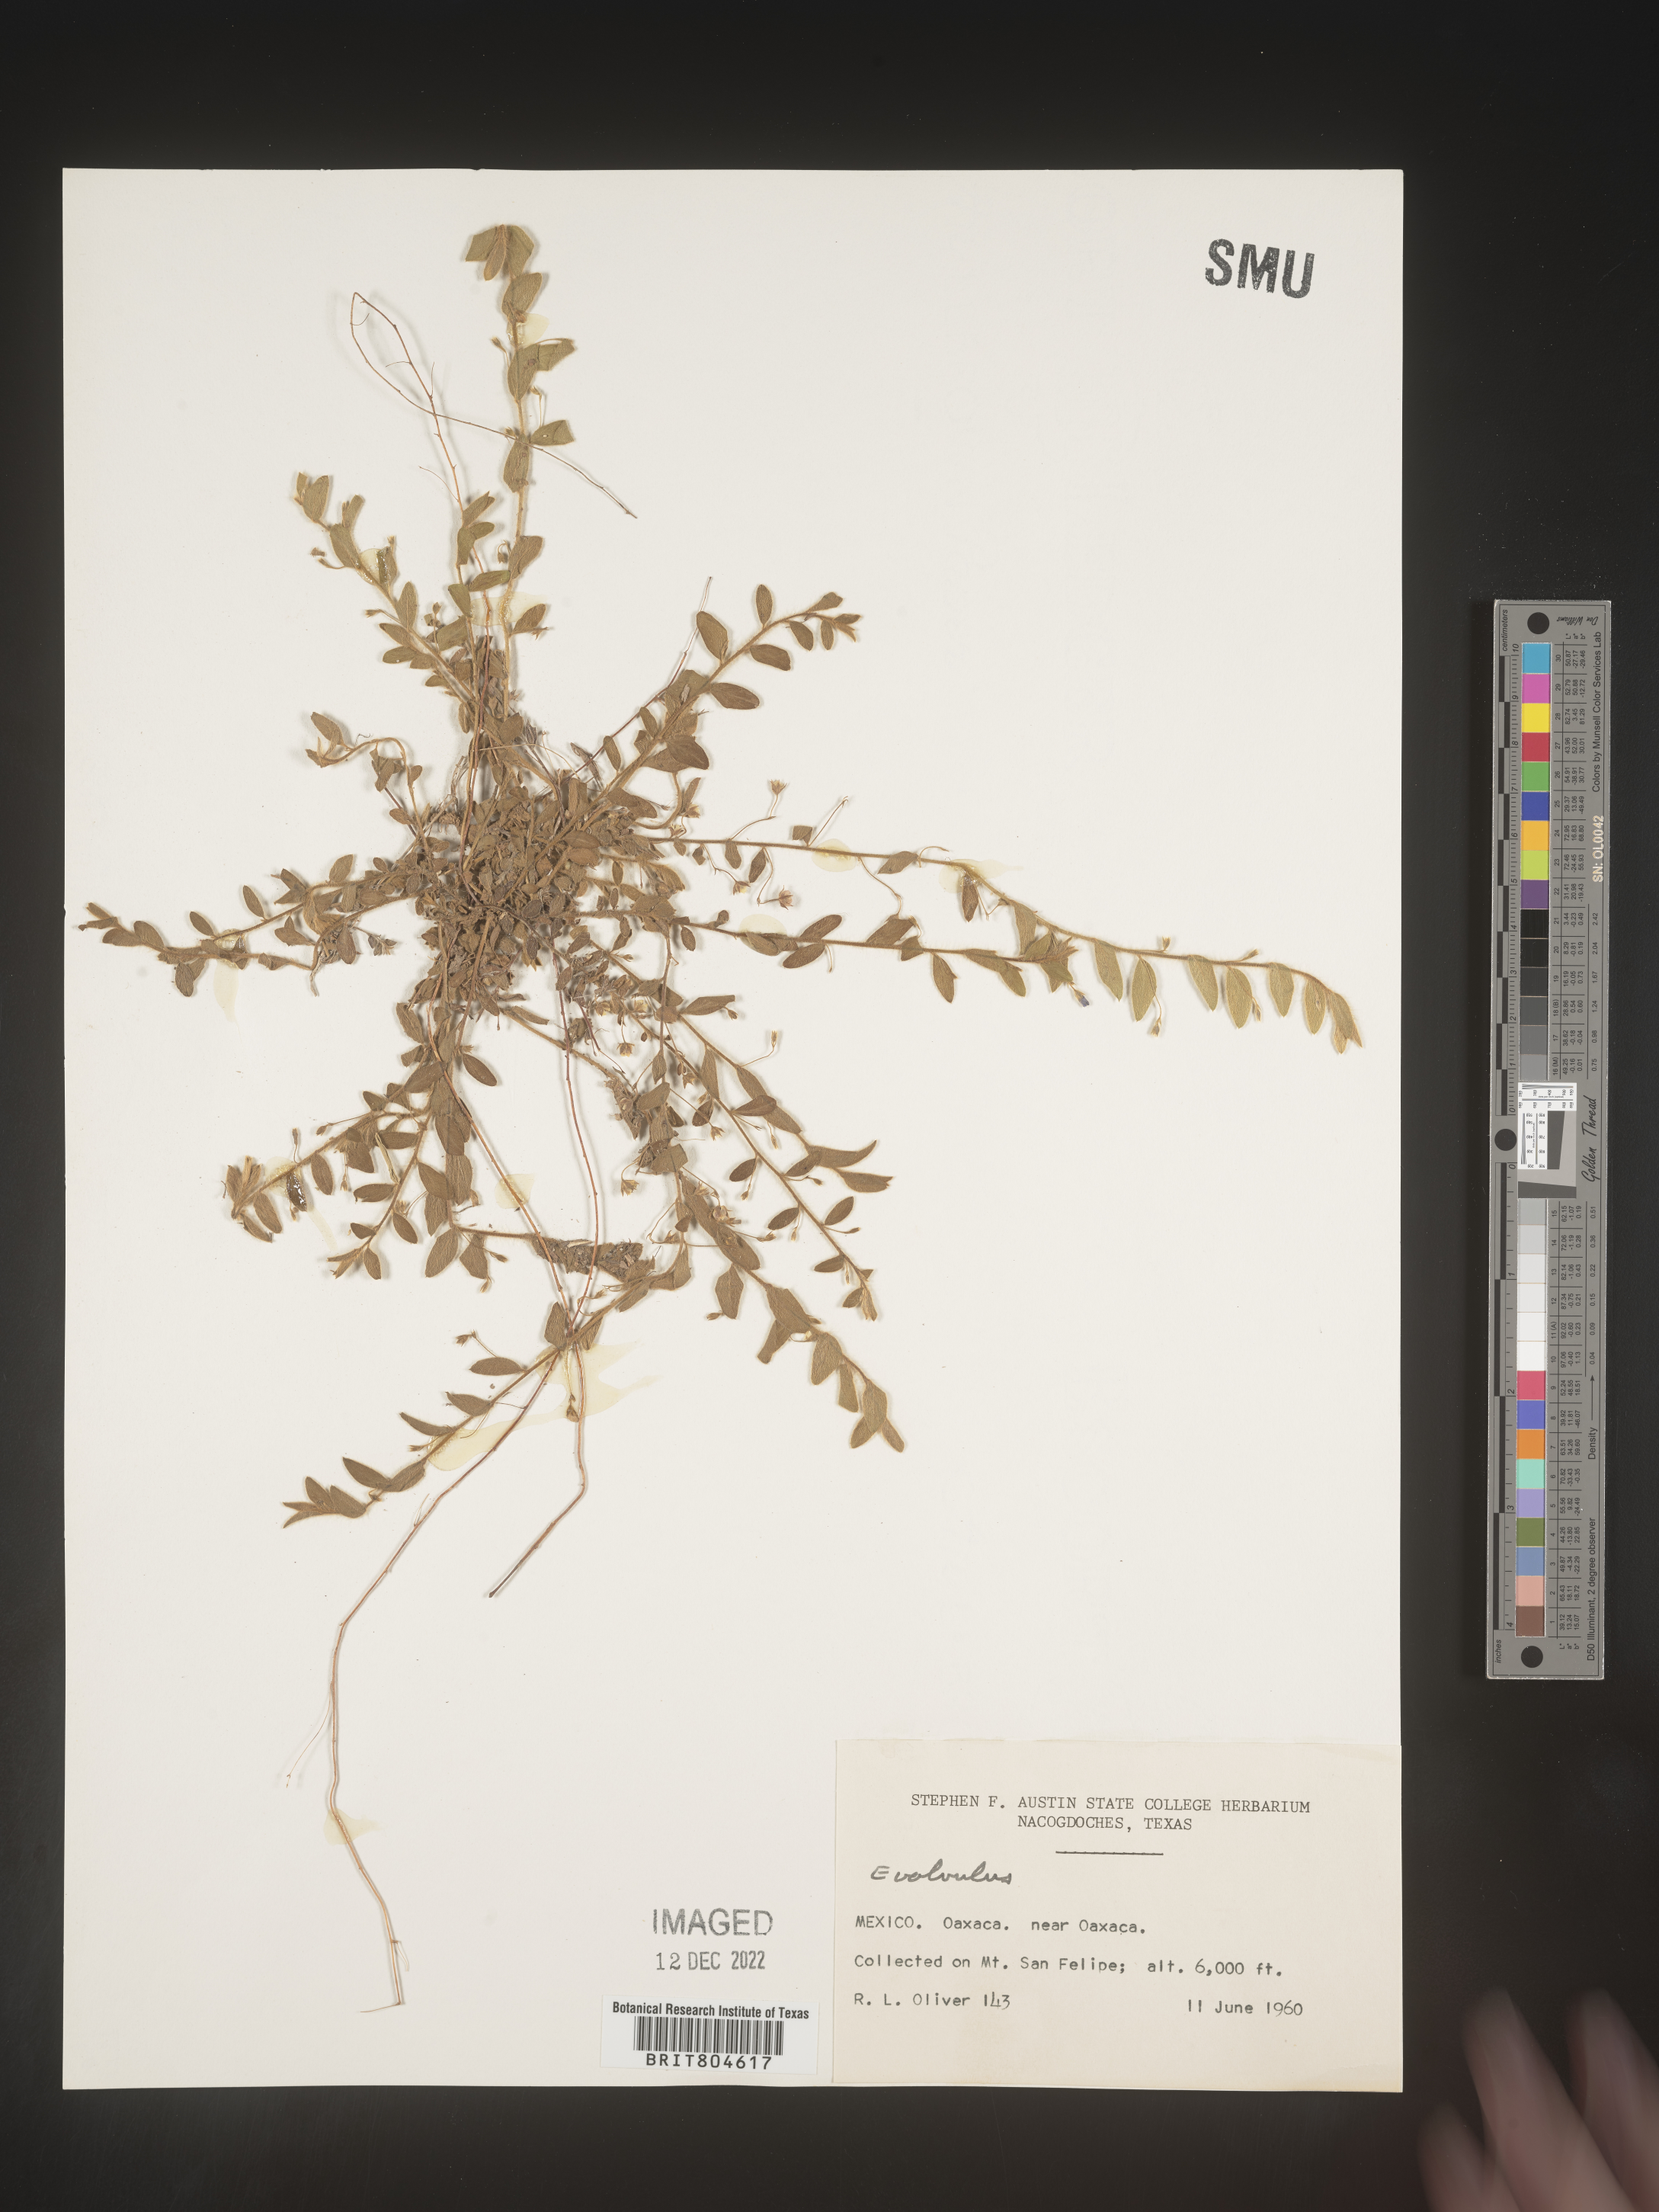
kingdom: Plantae
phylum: Tracheophyta
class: Magnoliopsida
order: Solanales
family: Convolvulaceae
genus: Evolvulus
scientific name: Evolvulus
